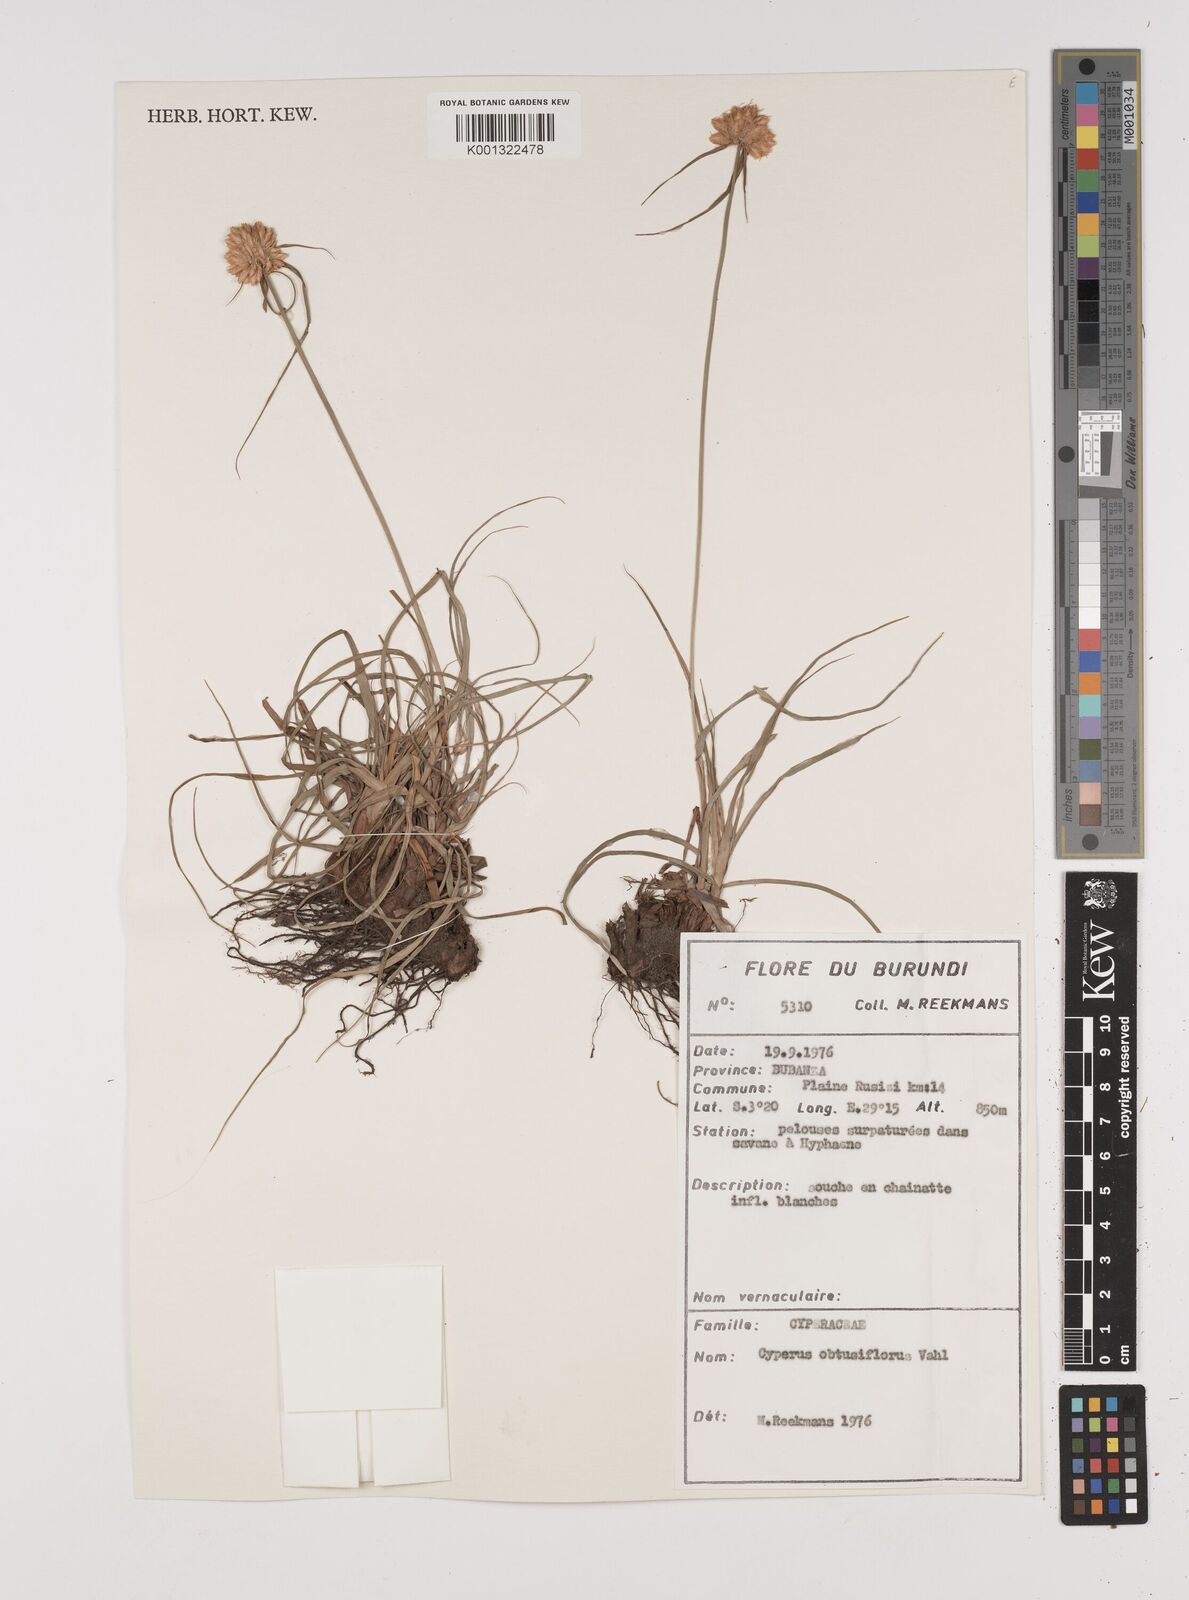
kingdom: Plantae
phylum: Tracheophyta
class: Liliopsida
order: Poales
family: Cyperaceae
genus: Cyperus
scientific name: Cyperus niveus
